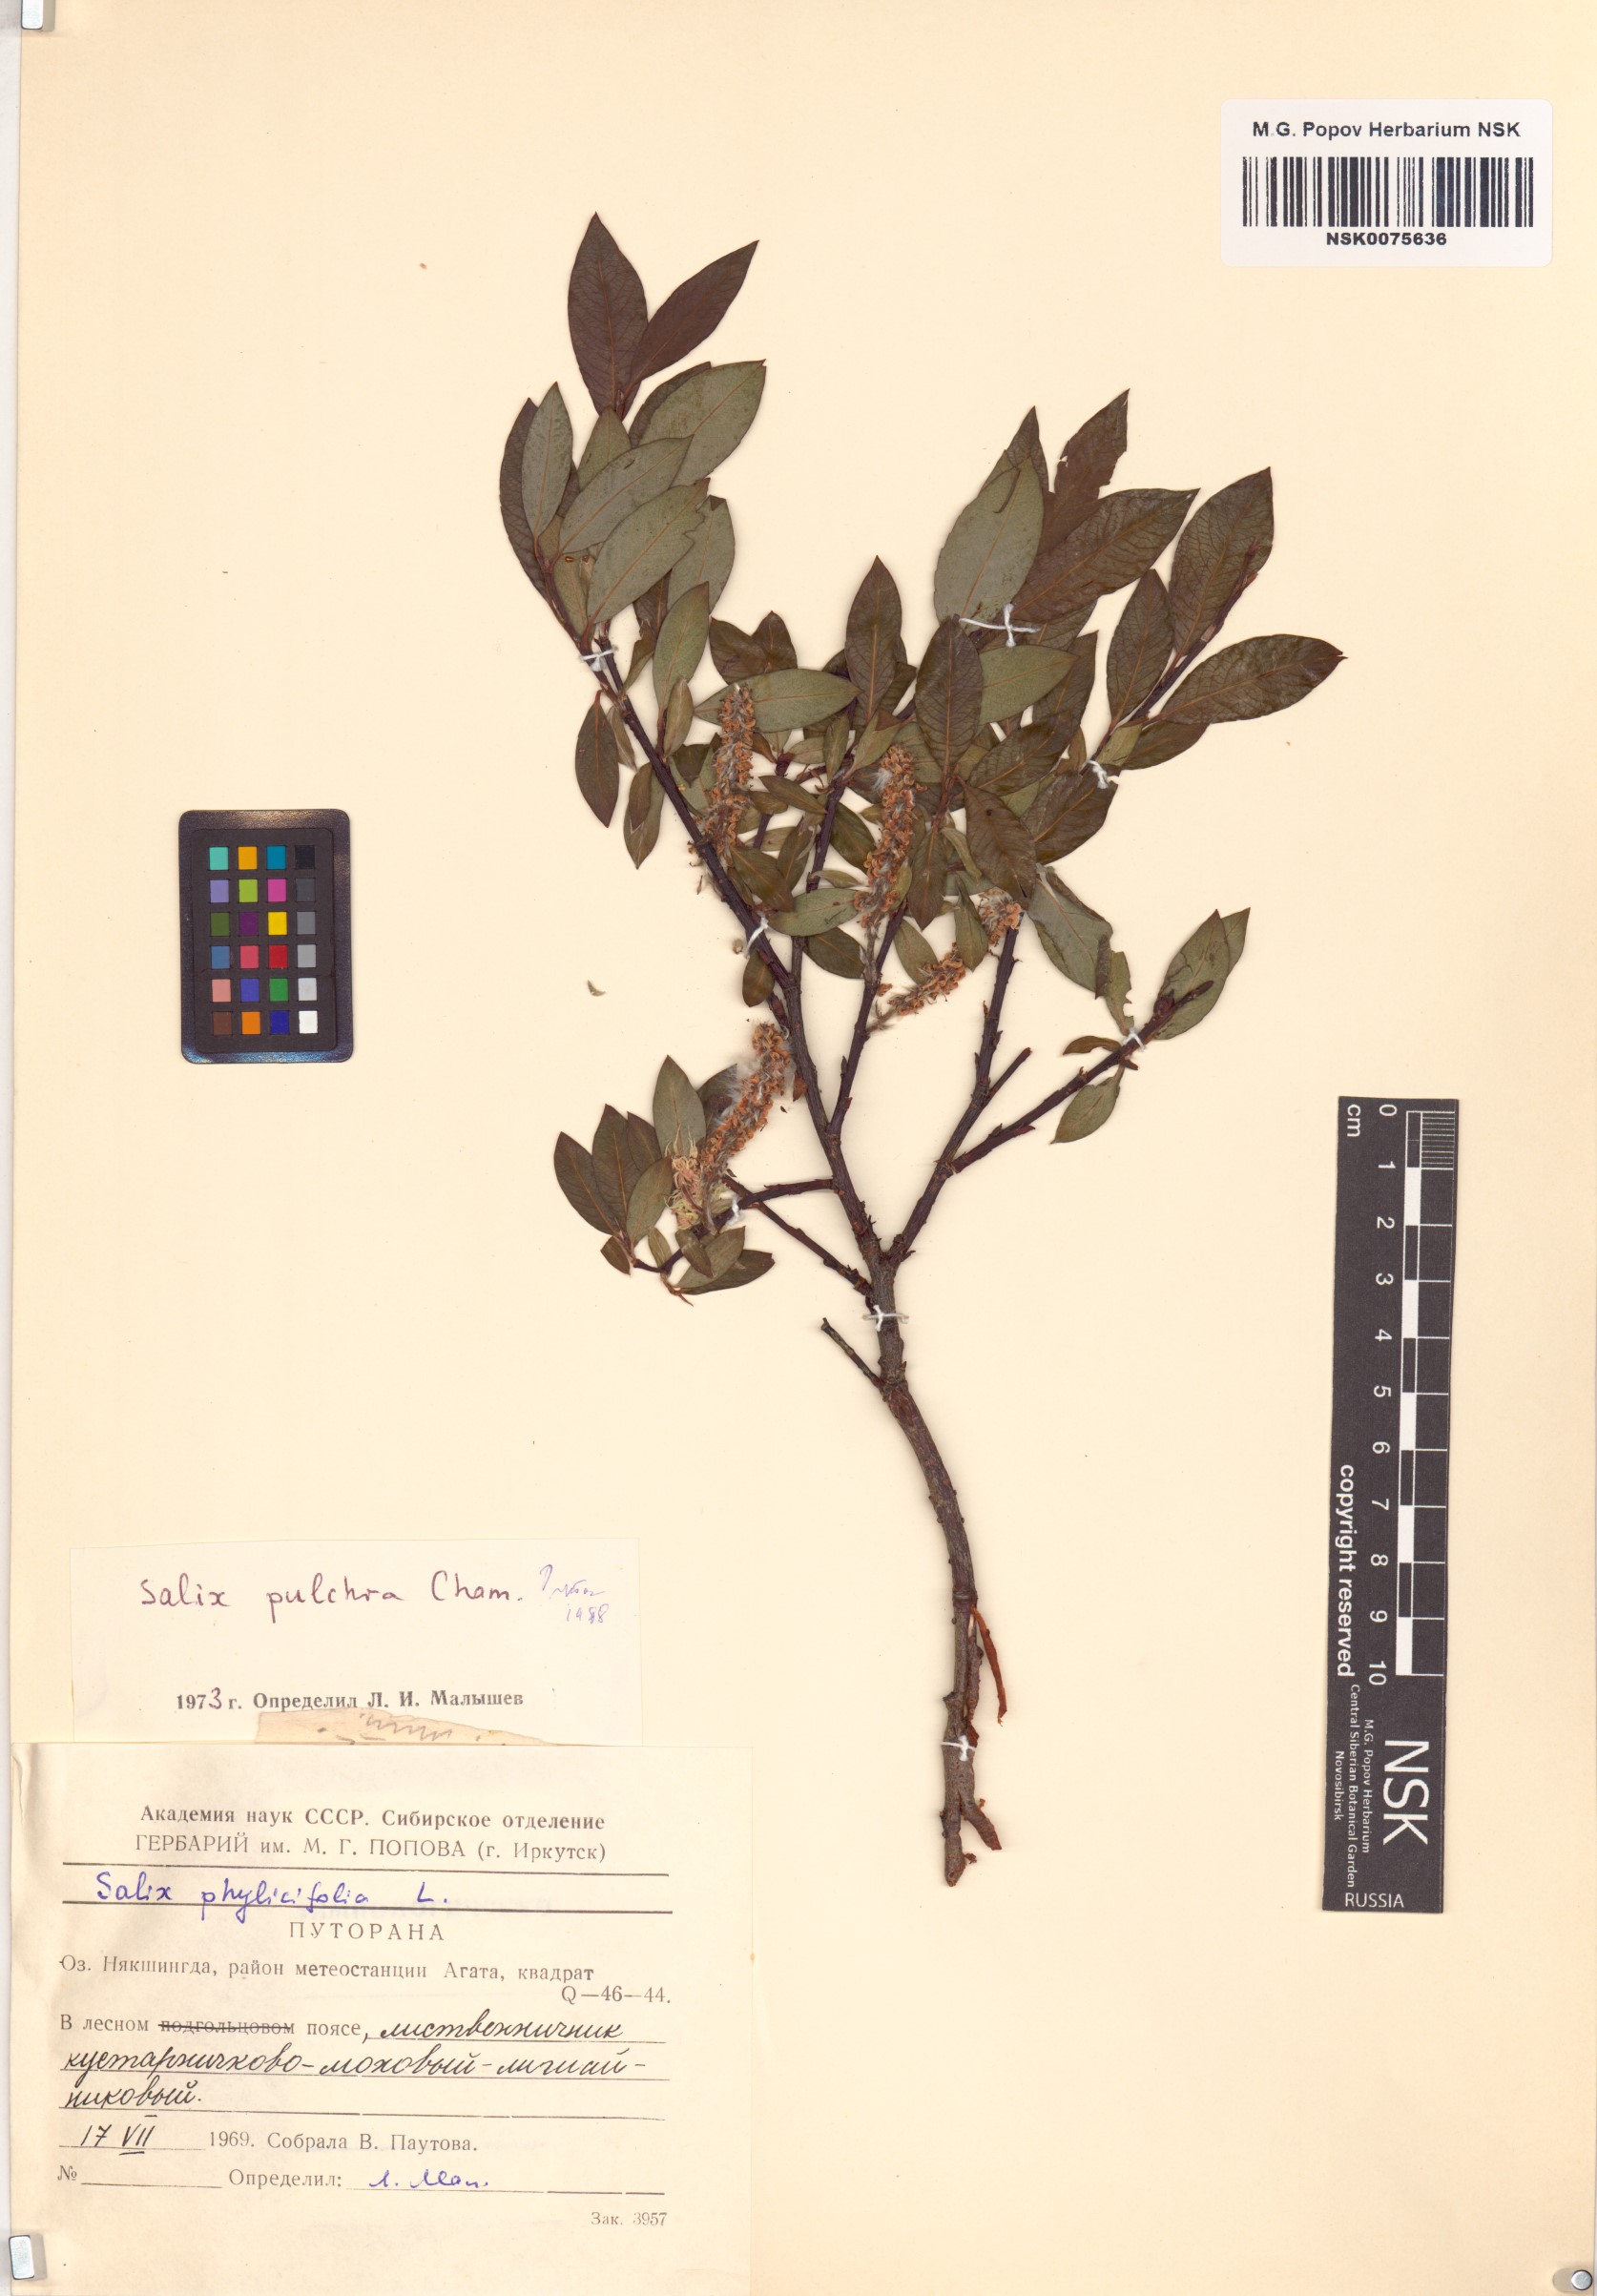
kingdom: Plantae
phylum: Tracheophyta
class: Magnoliopsida
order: Malpighiales
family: Salicaceae
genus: Salix
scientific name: Salix pulchra
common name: Diamond-leaved willow
